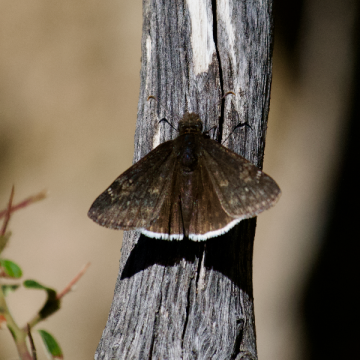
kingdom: Animalia
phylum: Arthropoda
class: Insecta
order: Lepidoptera
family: Hesperiidae
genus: Erynnis
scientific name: Erynnis funeralis
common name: Funereal Duskywing
